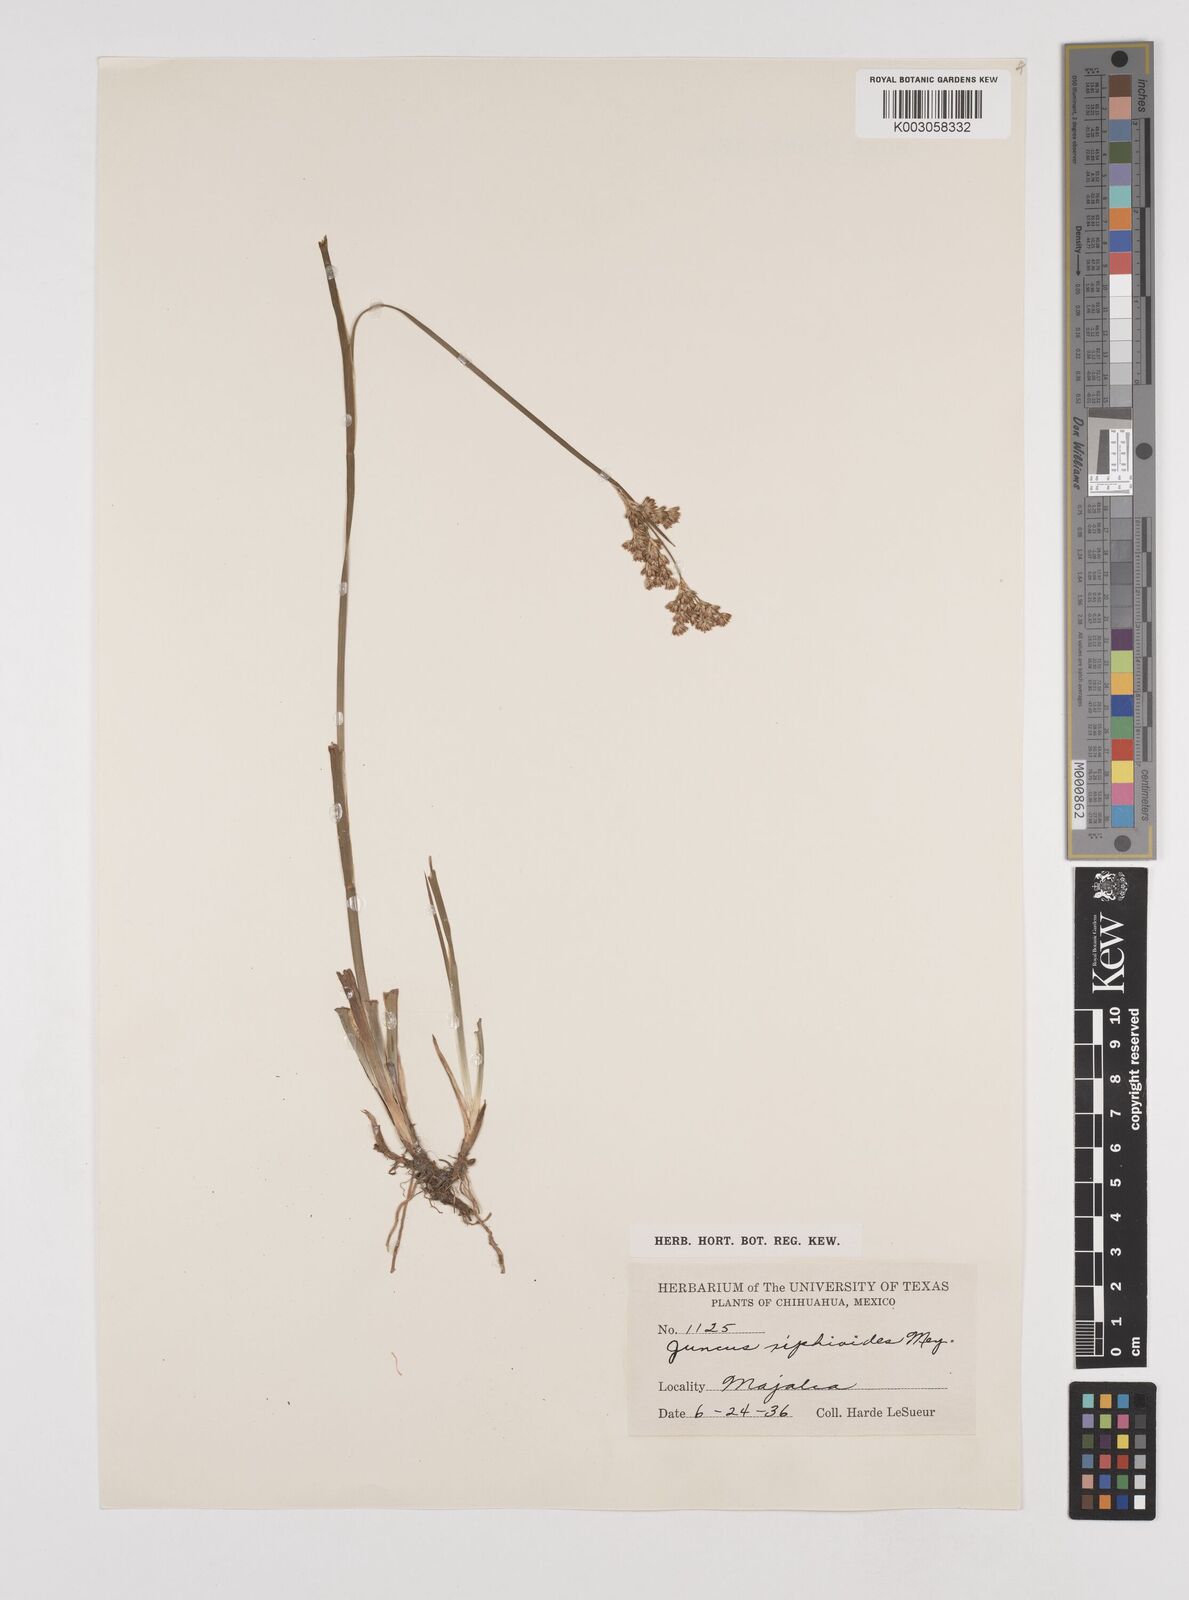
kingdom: Plantae
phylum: Tracheophyta
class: Liliopsida
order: Poales
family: Juncaceae
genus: Juncus
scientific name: Juncus xiphioides
